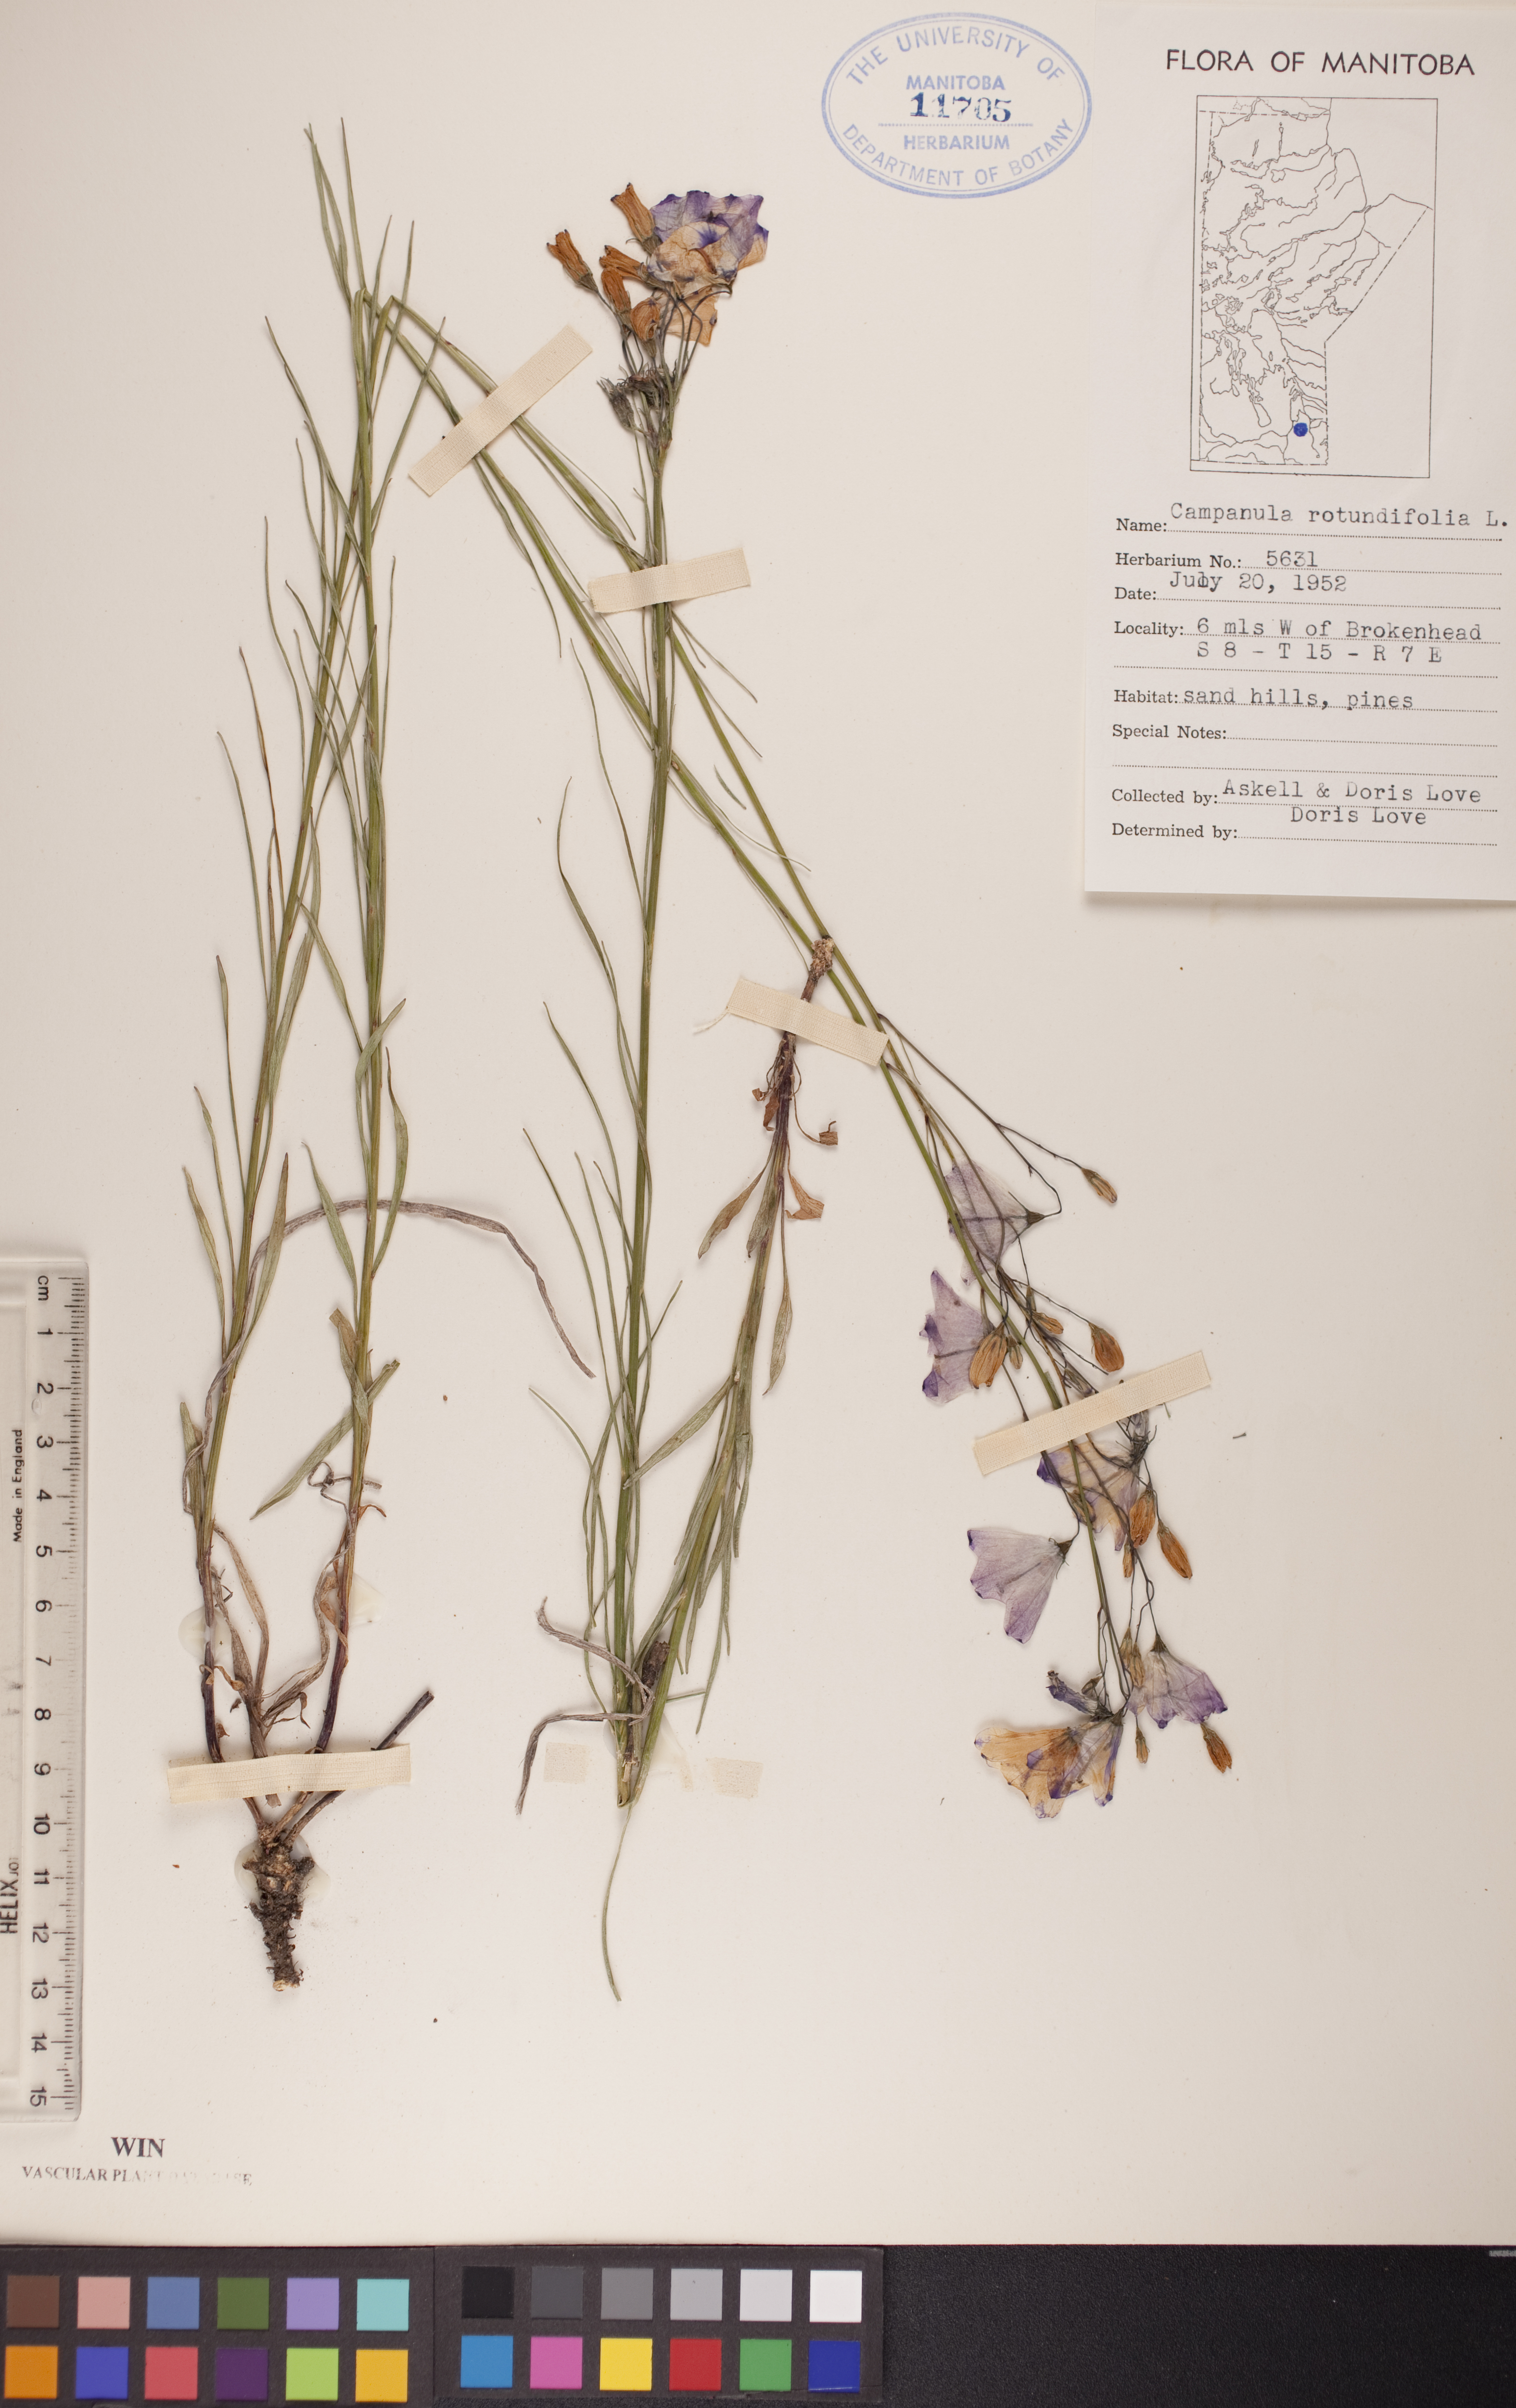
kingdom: Plantae
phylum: Tracheophyta
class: Magnoliopsida
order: Asterales
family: Campanulaceae
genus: Campanula
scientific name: Campanula rotundifolia
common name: Harebell
